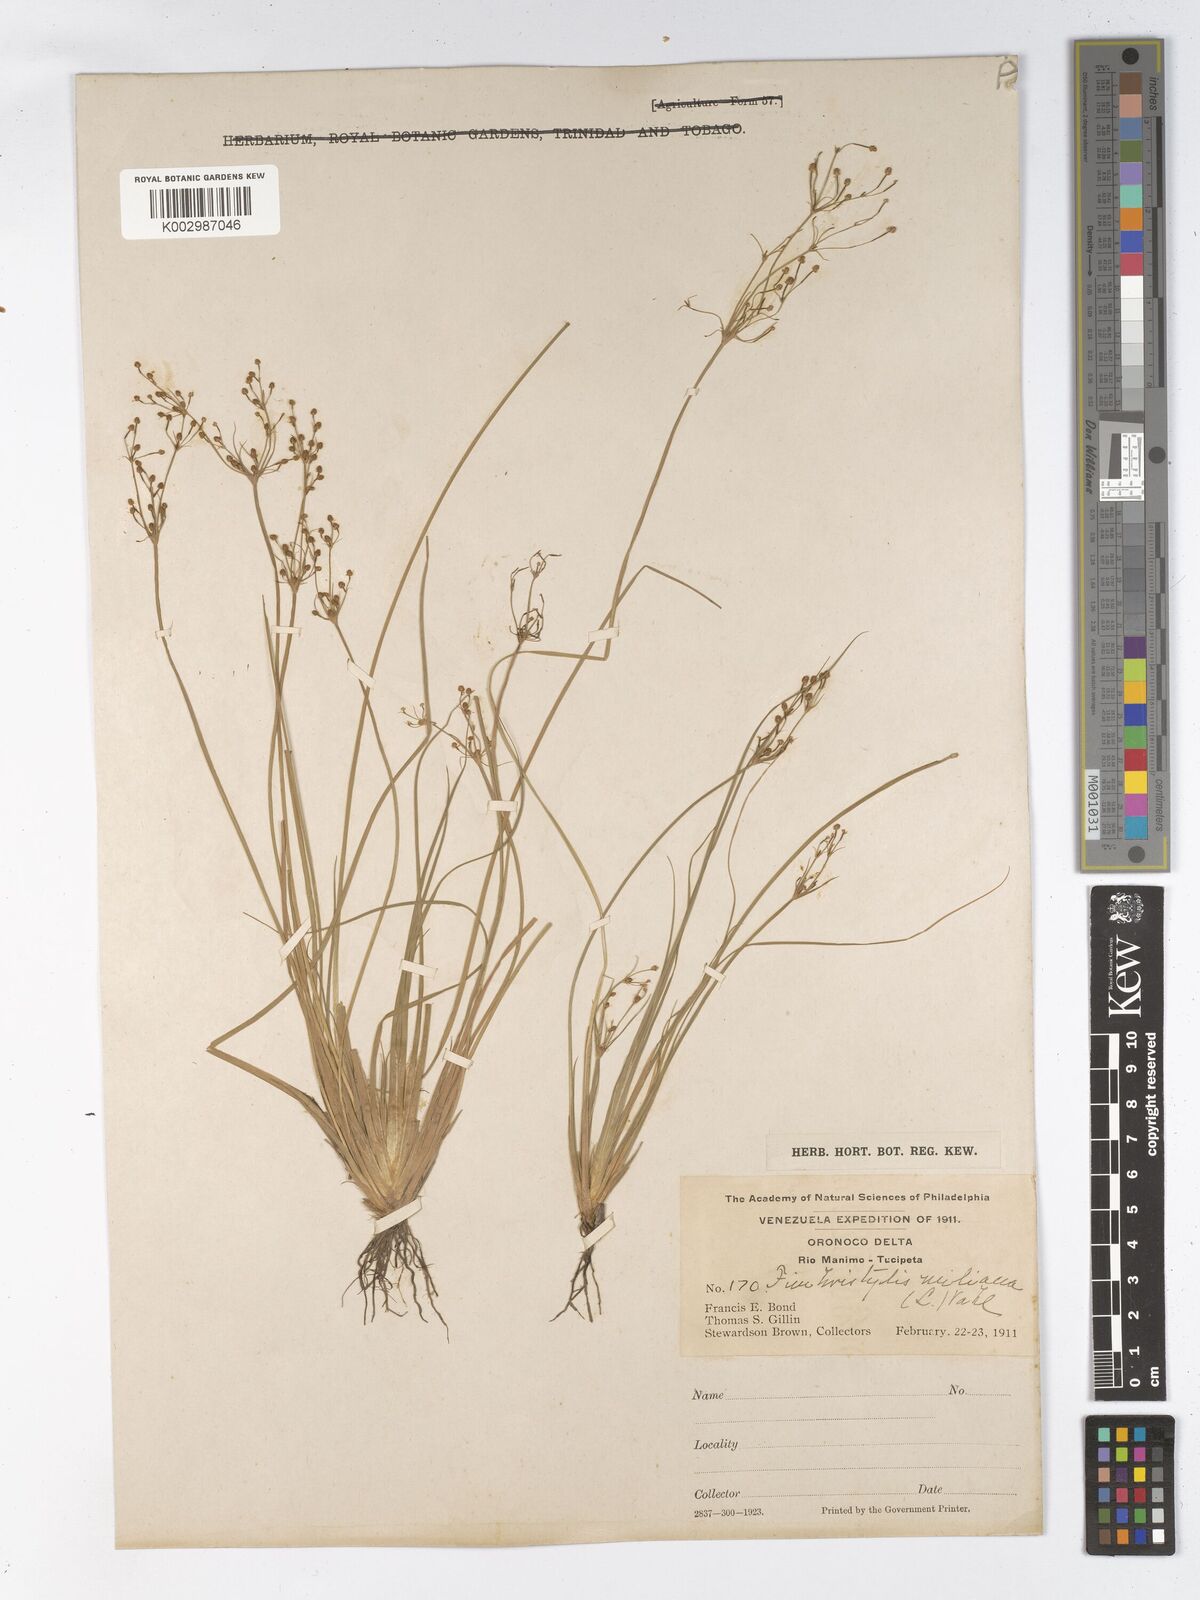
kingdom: Plantae
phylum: Tracheophyta
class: Liliopsida
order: Poales
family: Cyperaceae
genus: Fimbristylis
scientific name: Fimbristylis littoralis
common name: Fimbry
